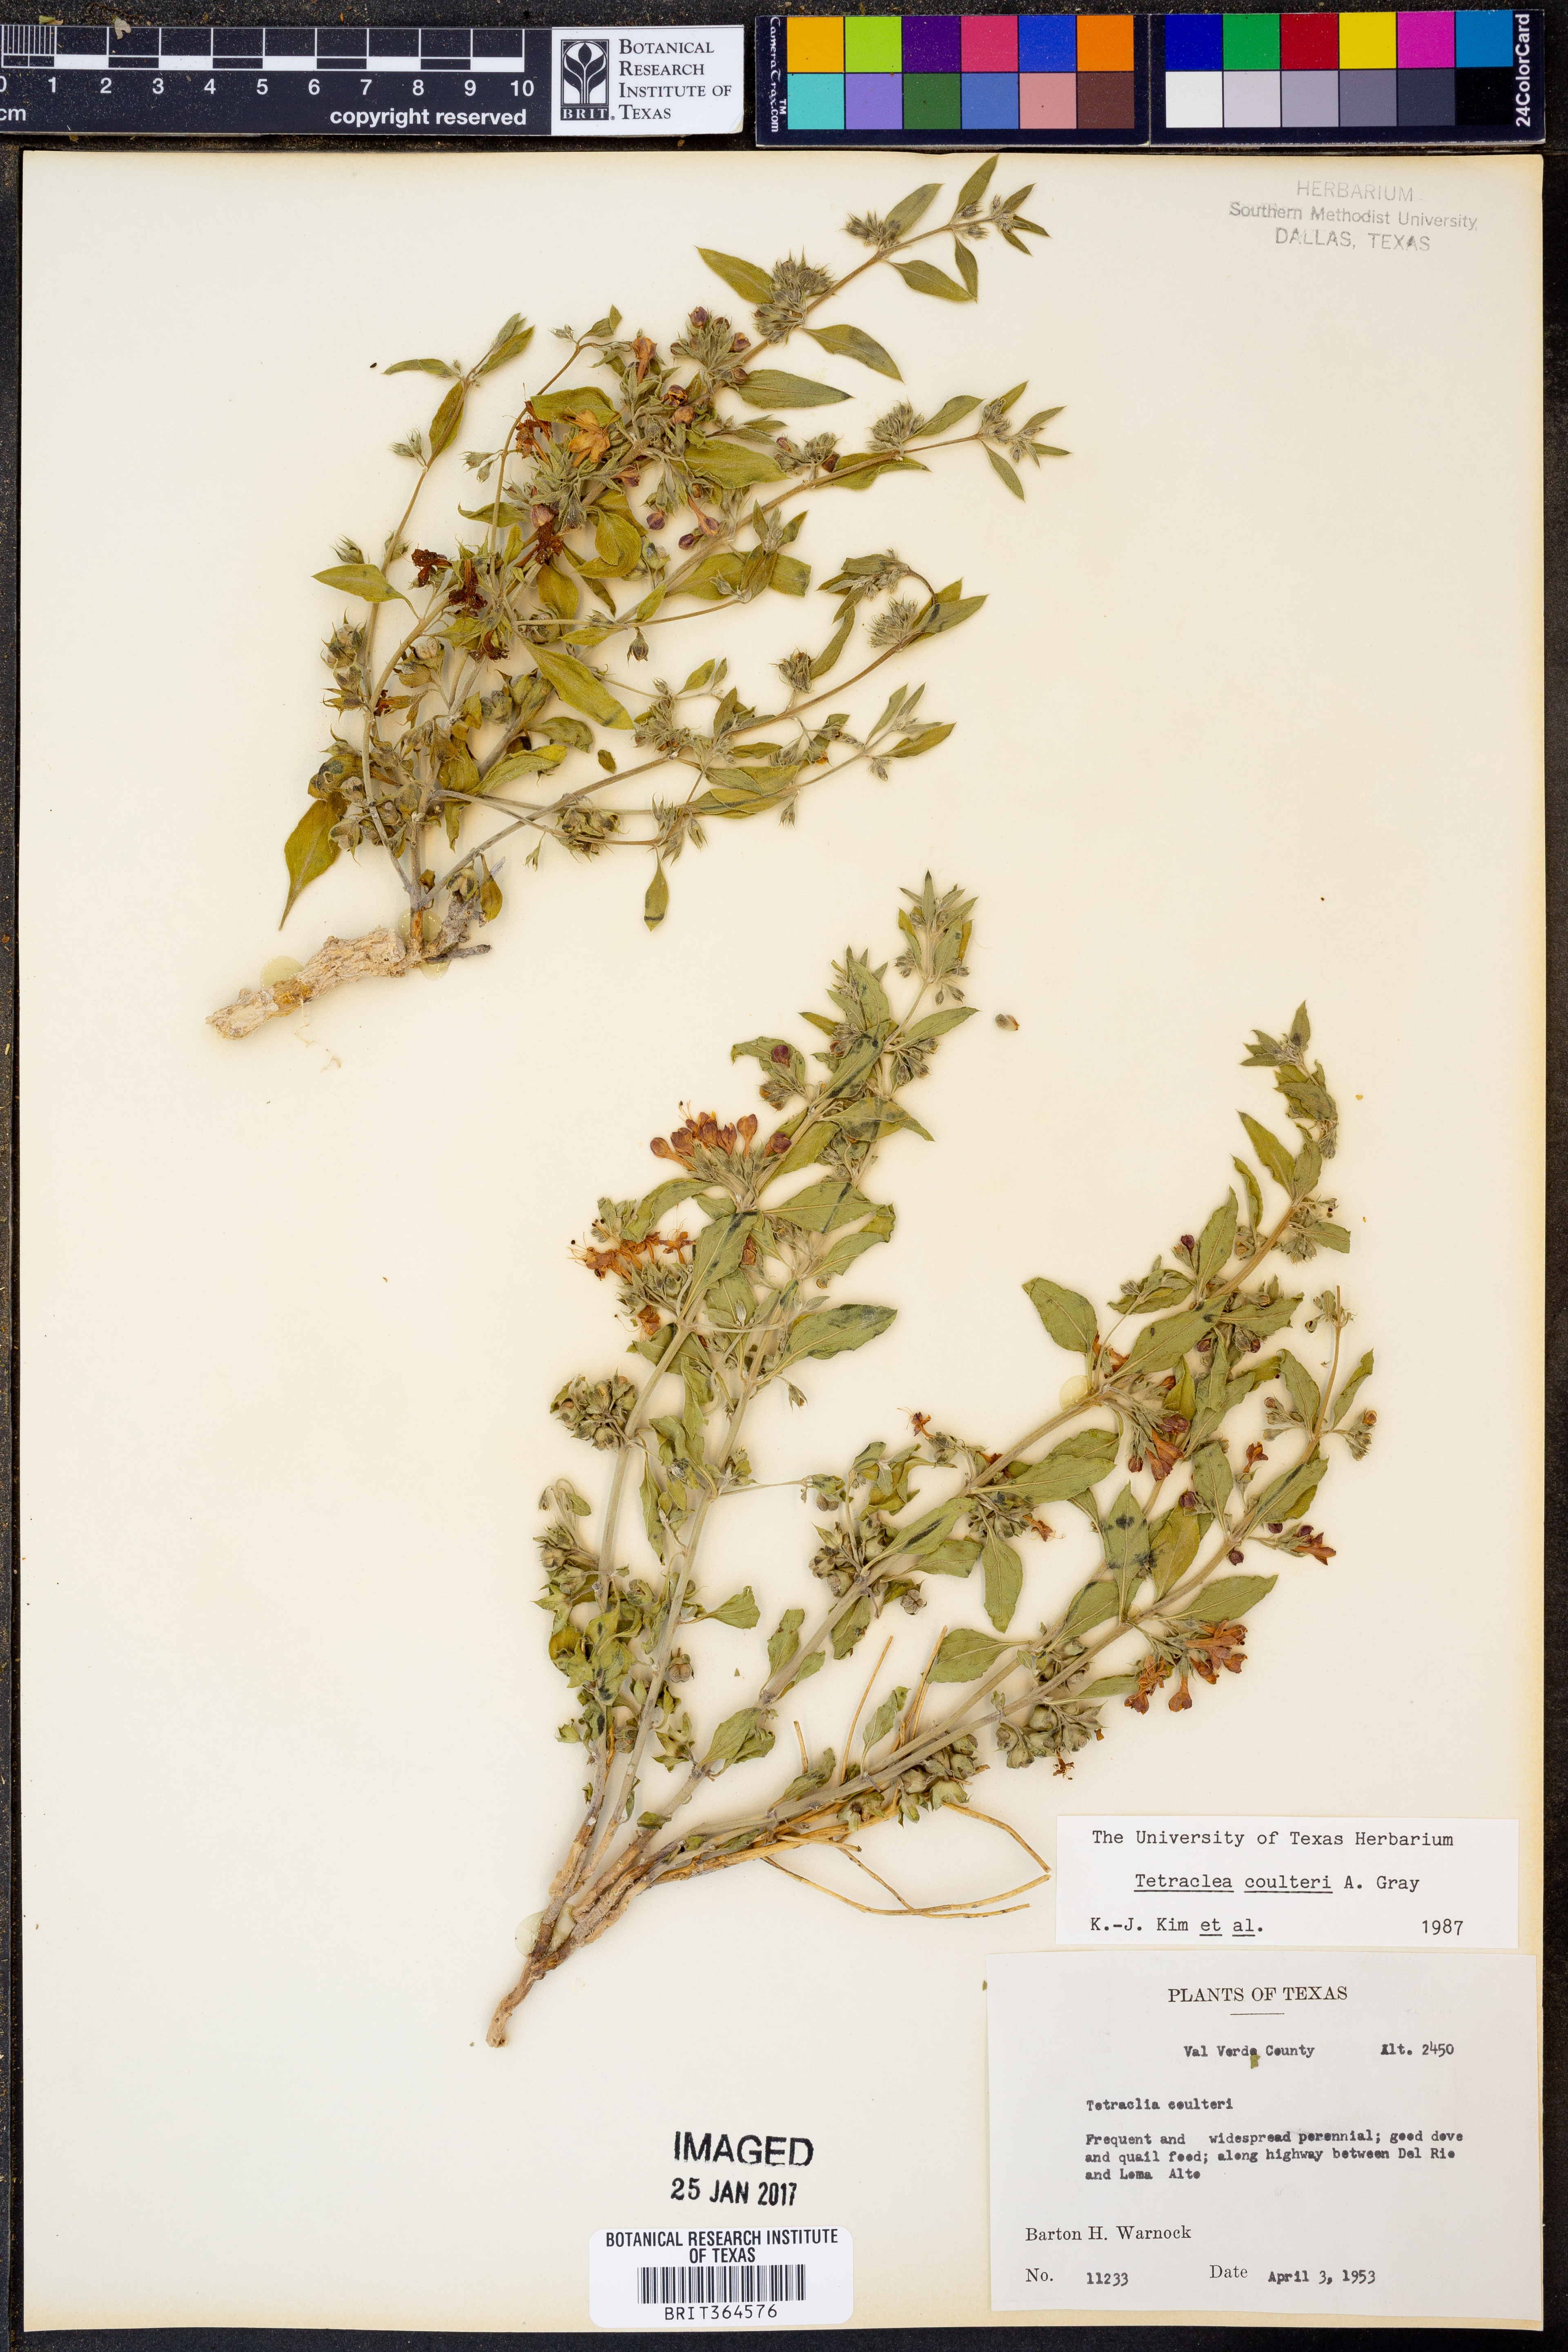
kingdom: Plantae
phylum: Tracheophyta
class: Magnoliopsida
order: Lamiales
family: Lamiaceae
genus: Tetraclea
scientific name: Tetraclea coulteri
